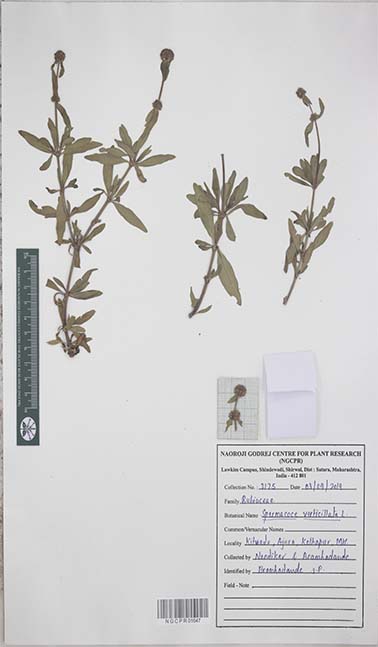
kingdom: Plantae
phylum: Tracheophyta
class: Magnoliopsida
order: Gentianales
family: Rubiaceae
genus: Spermacoce
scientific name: Spermacoce verticillata
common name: Shrubby false buttonweed
